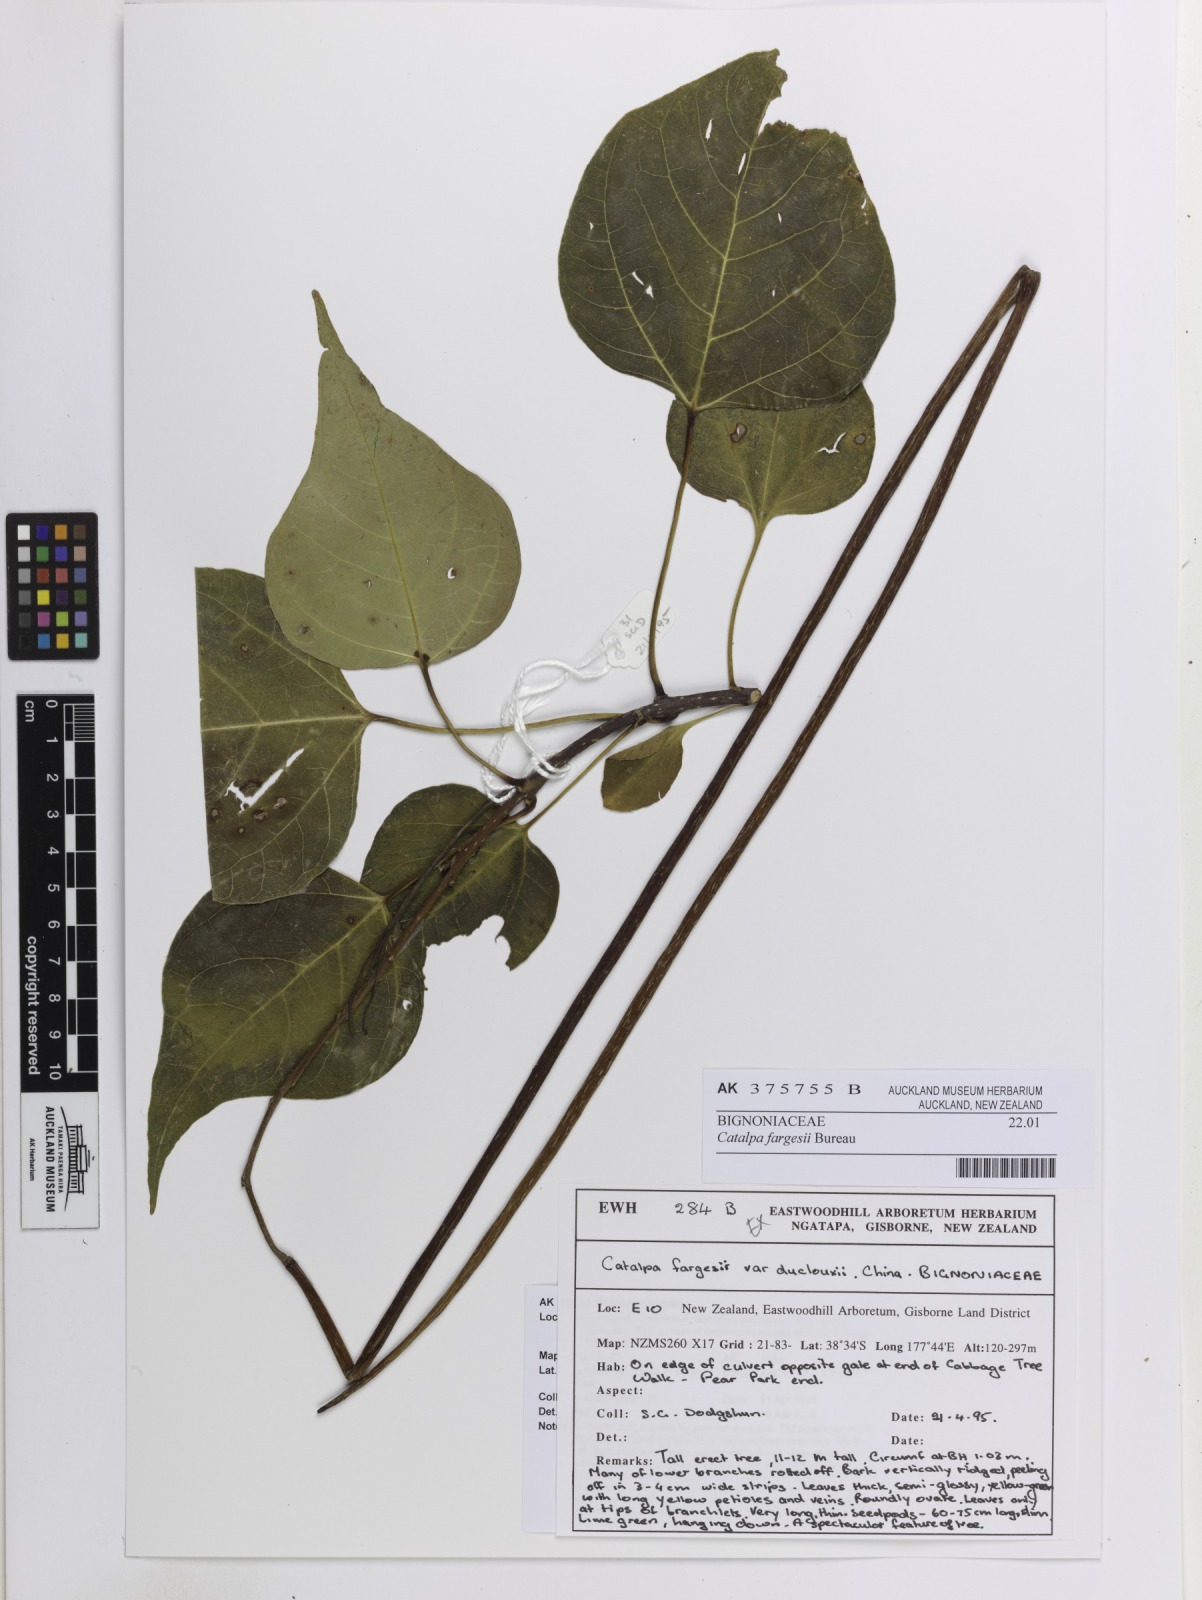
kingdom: Plantae
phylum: Tracheophyta
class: Magnoliopsida
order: Lamiales
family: Bignoniaceae
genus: Catalpa
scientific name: Catalpa fargesii
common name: Farges's catalpa
